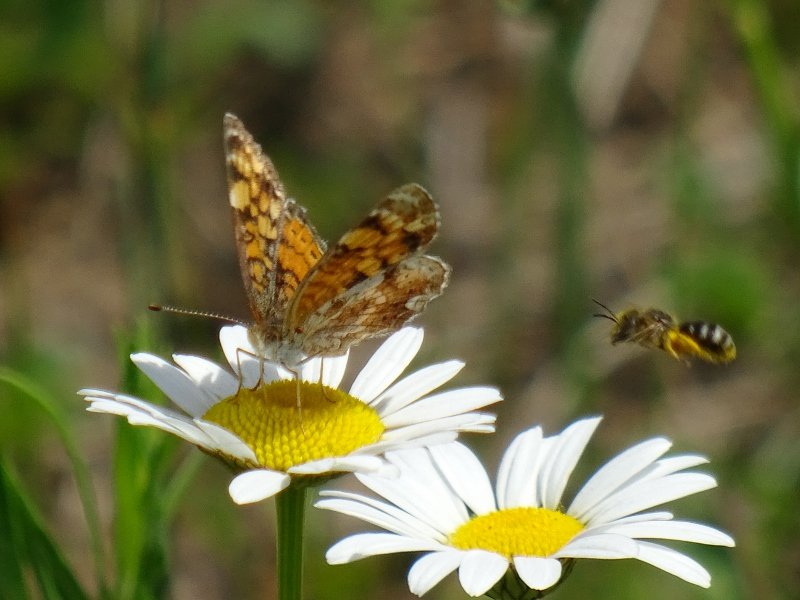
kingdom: Animalia
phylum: Arthropoda
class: Insecta
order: Lepidoptera
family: Nymphalidae
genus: Phyciodes
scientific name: Phyciodes tharos
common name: Pearl Crescent
